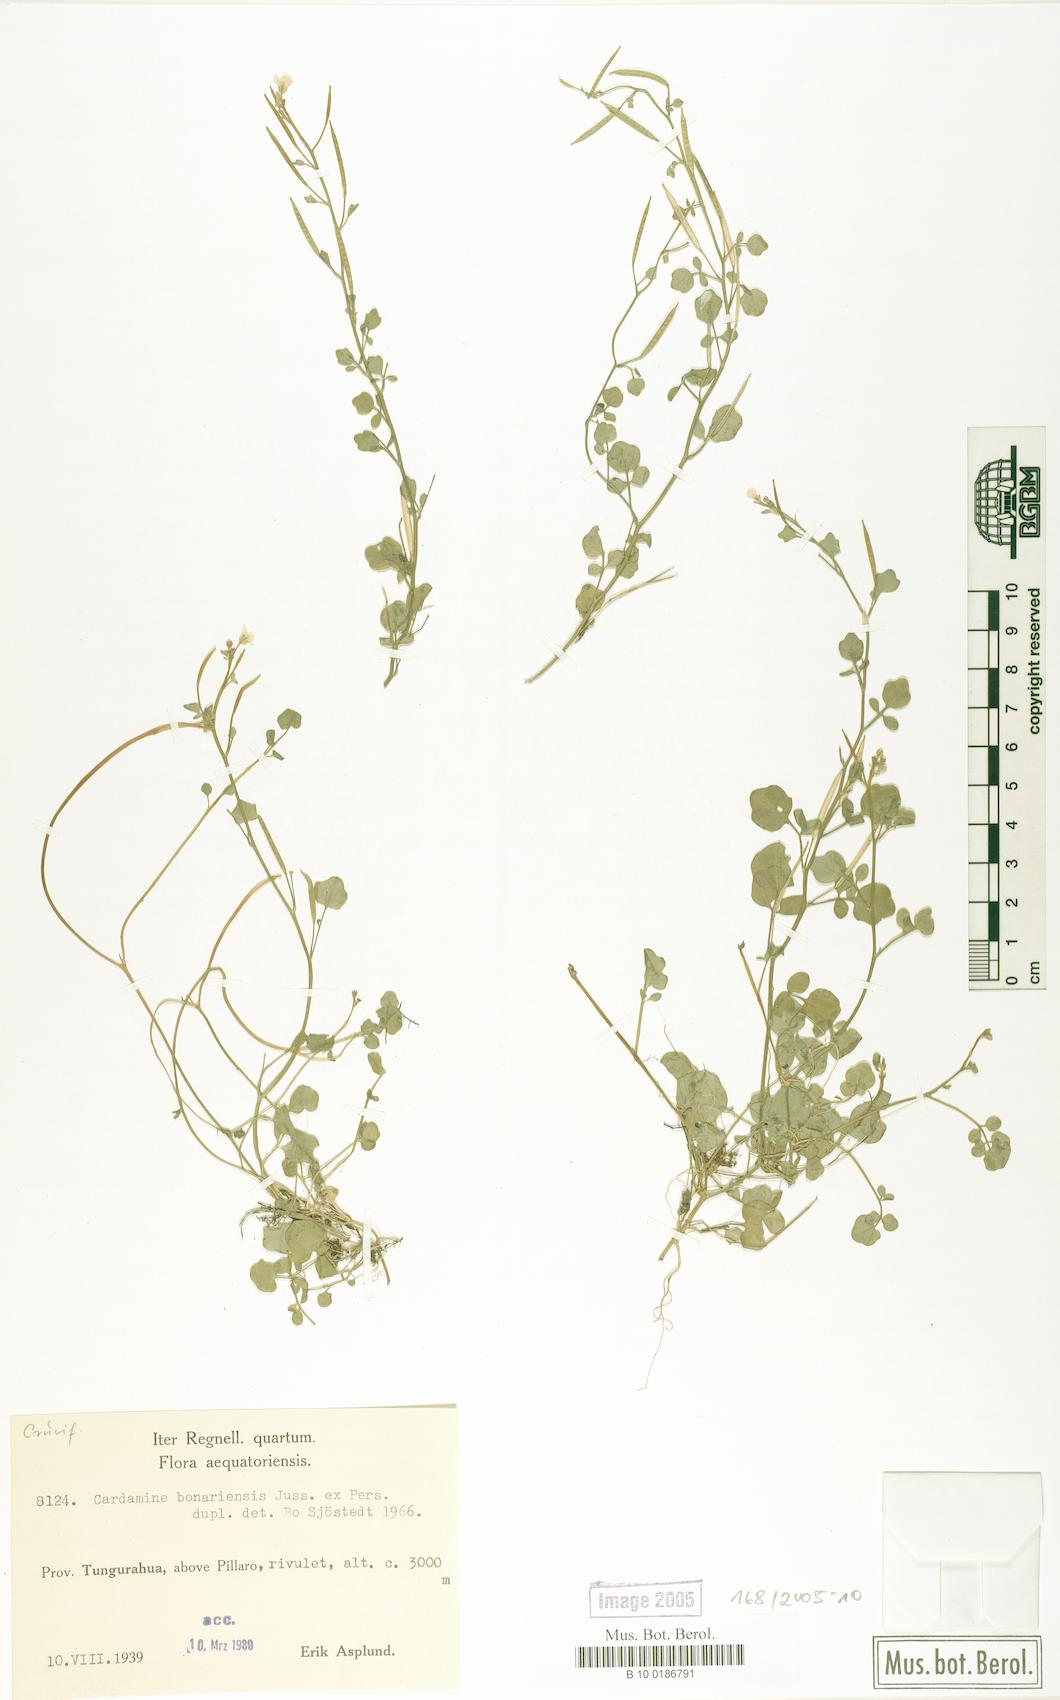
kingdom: Plantae
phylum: Tracheophyta
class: Magnoliopsida
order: Brassicales
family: Brassicaceae
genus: Cardamine
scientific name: Cardamine bonariensis
